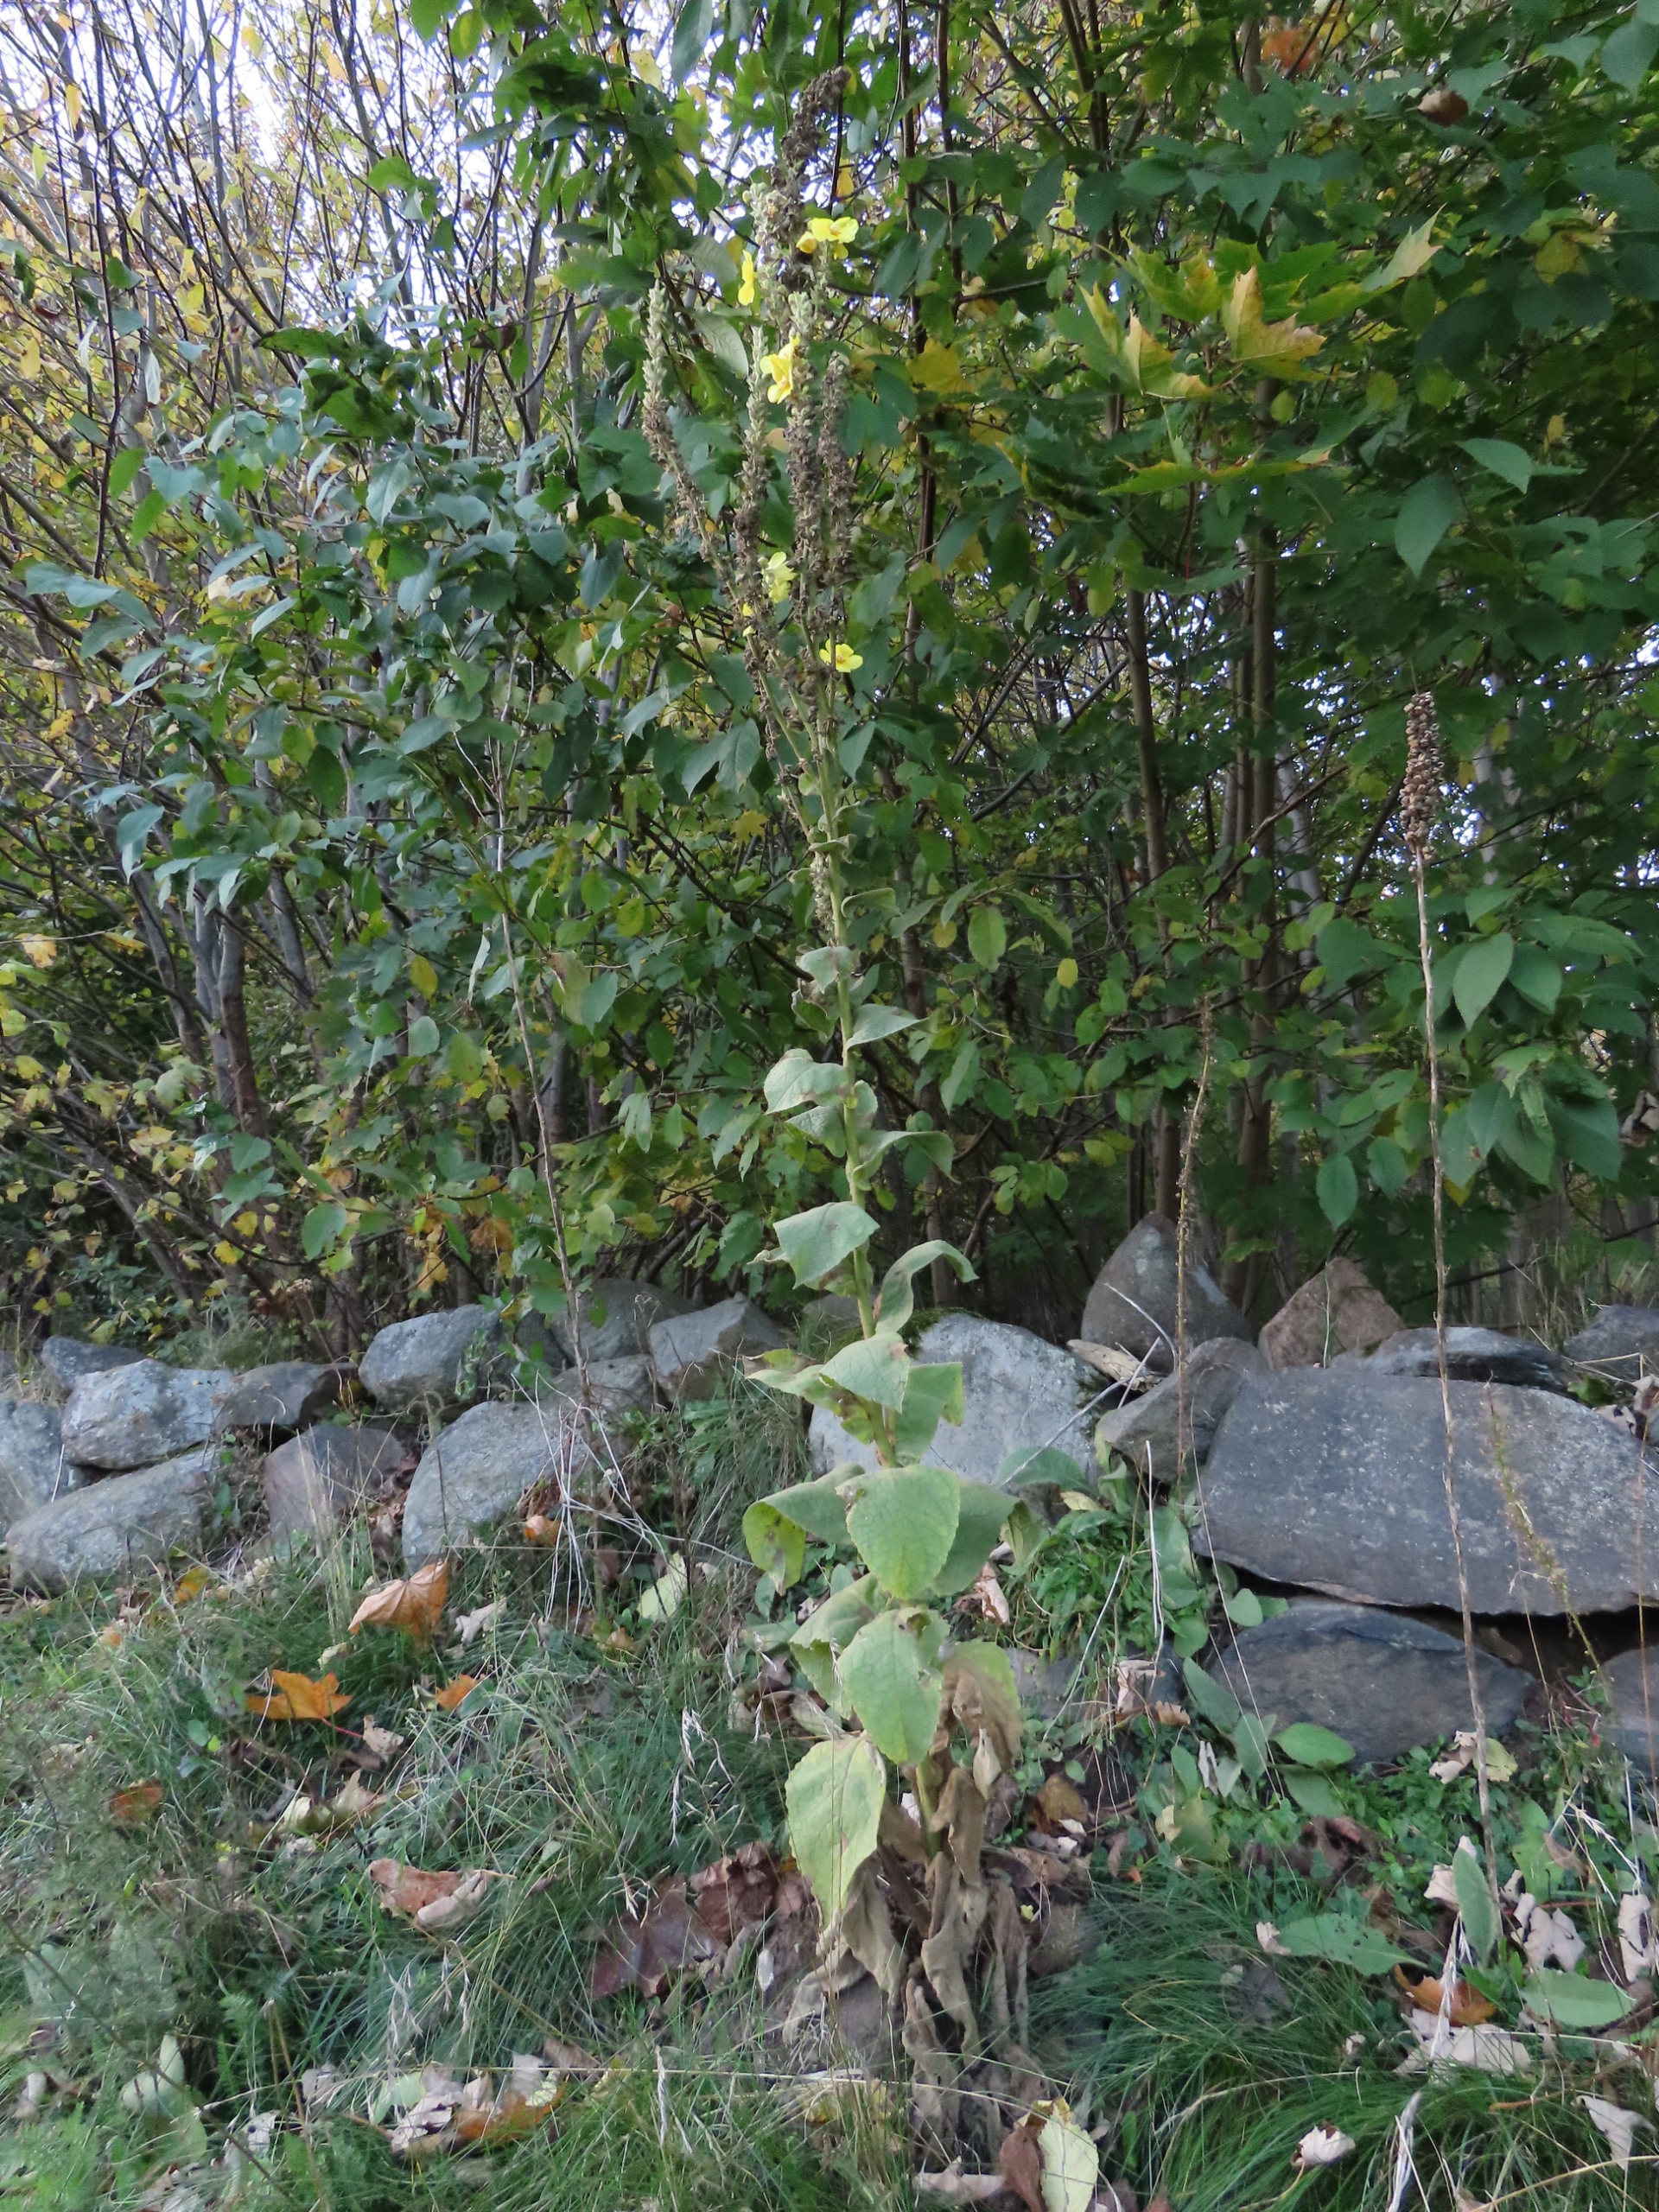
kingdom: Plantae
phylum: Tracheophyta
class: Magnoliopsida
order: Lamiales
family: Scrophulariaceae
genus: Verbascum
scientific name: Verbascum phlomoides
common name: Hjertebladet kongelys
